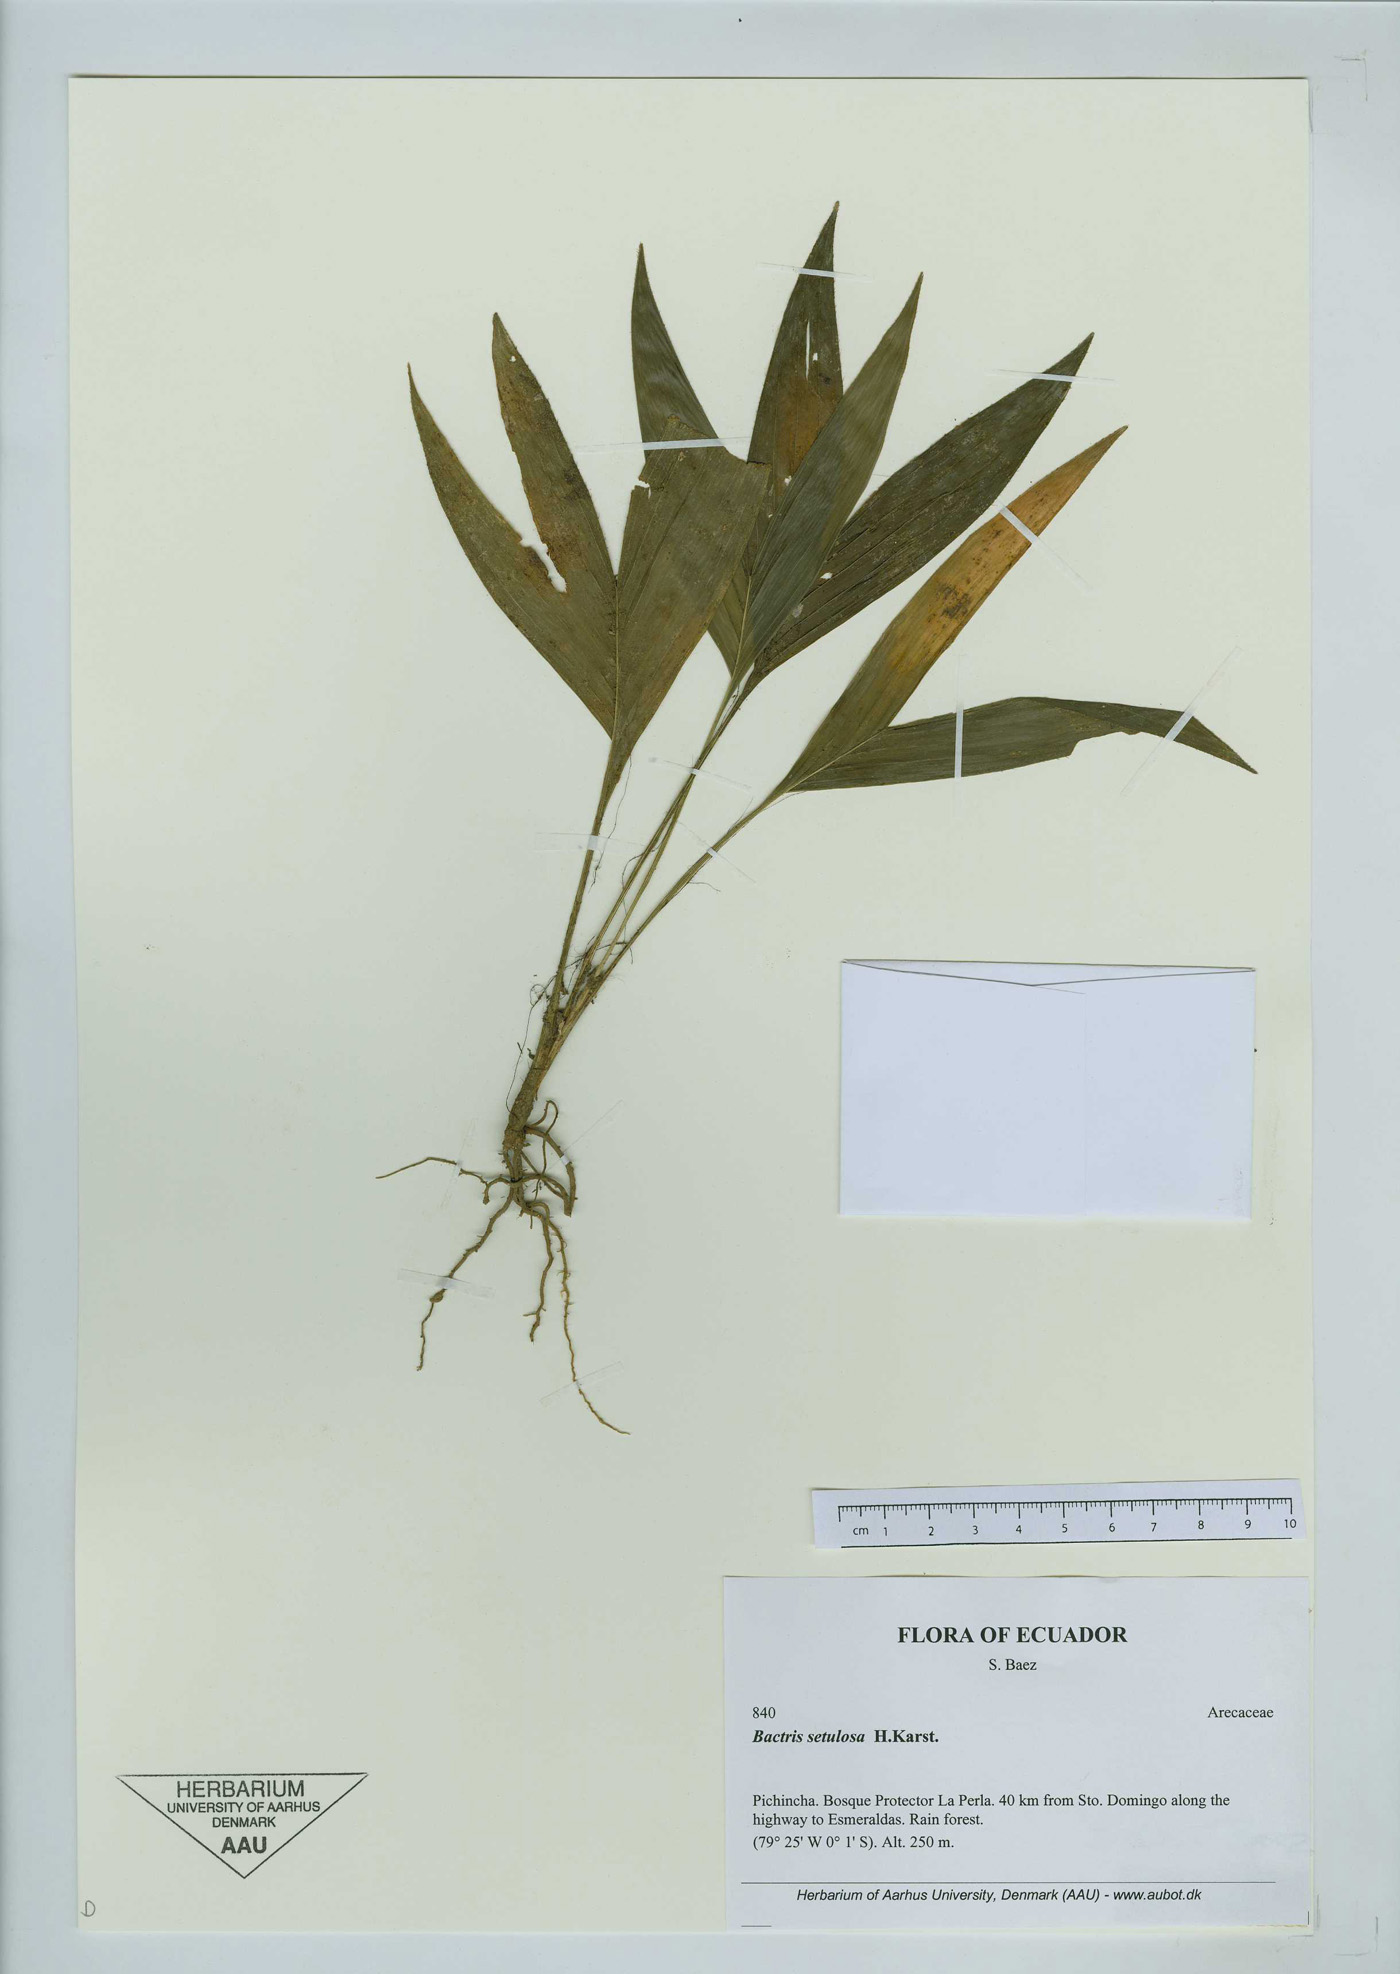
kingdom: Plantae
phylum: Tracheophyta
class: Liliopsida
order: Arecales
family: Arecaceae
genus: Bactris
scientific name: Bactris setulosa
